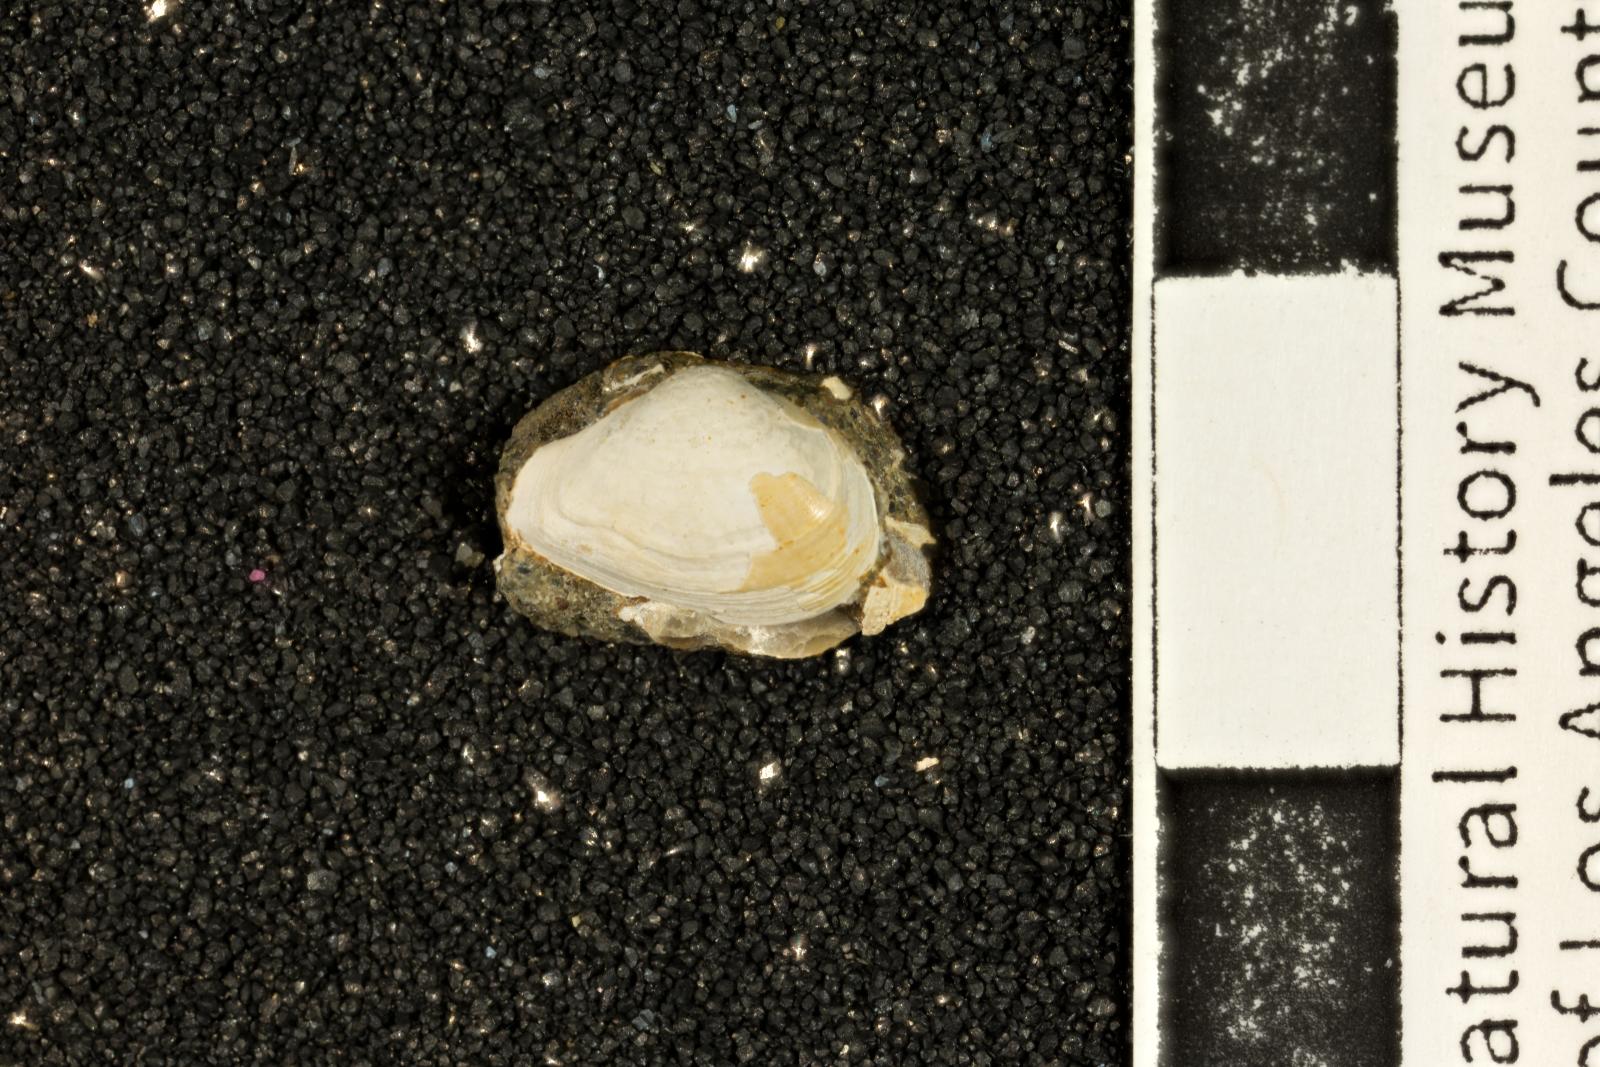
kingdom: Animalia
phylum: Mollusca
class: Bivalvia
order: Myida
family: Corbulidae
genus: Excorbula
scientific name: Excorbula shastana
